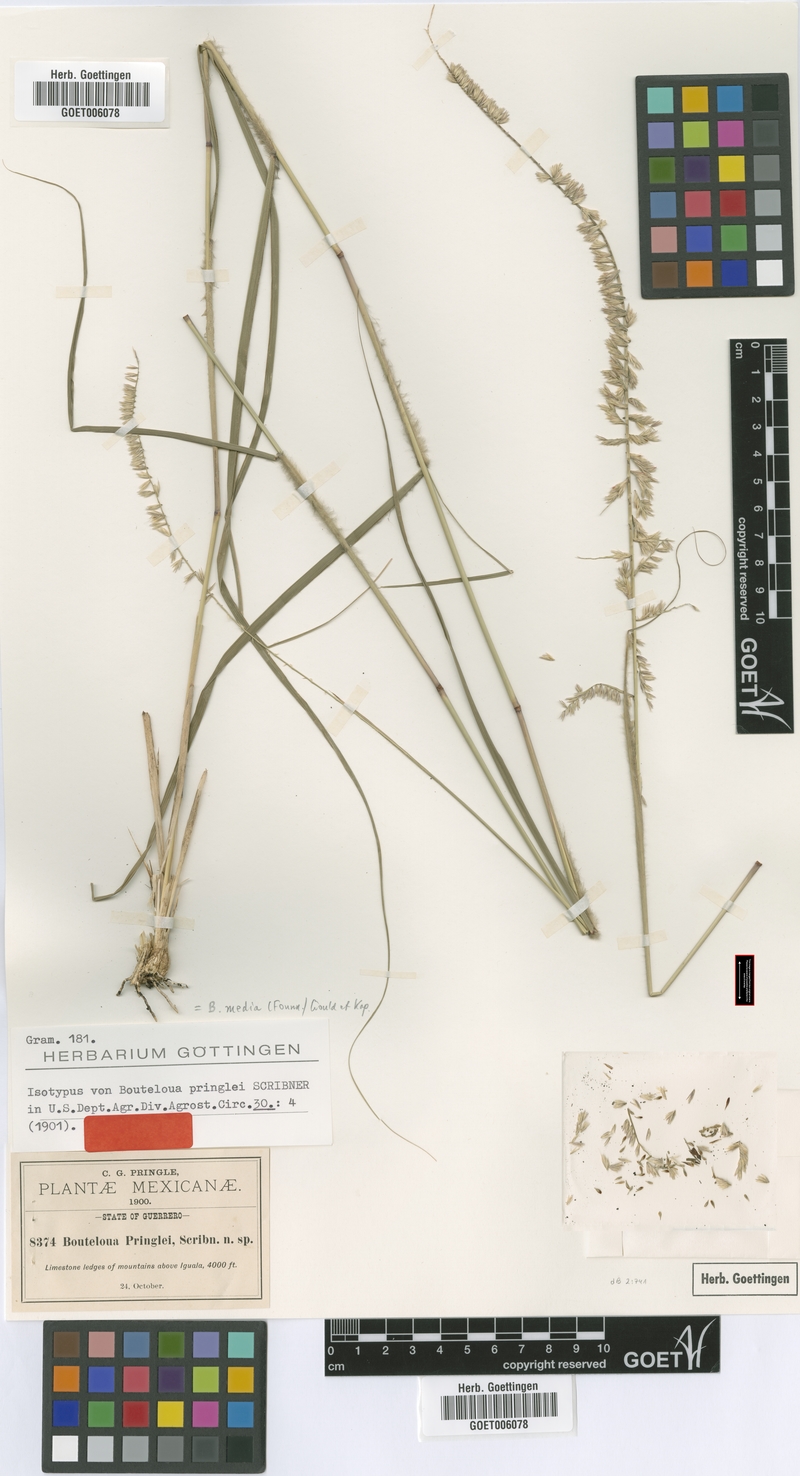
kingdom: Plantae
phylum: Tracheophyta
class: Liliopsida
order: Poales
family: Poaceae
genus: Bouteloua
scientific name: Bouteloua media
